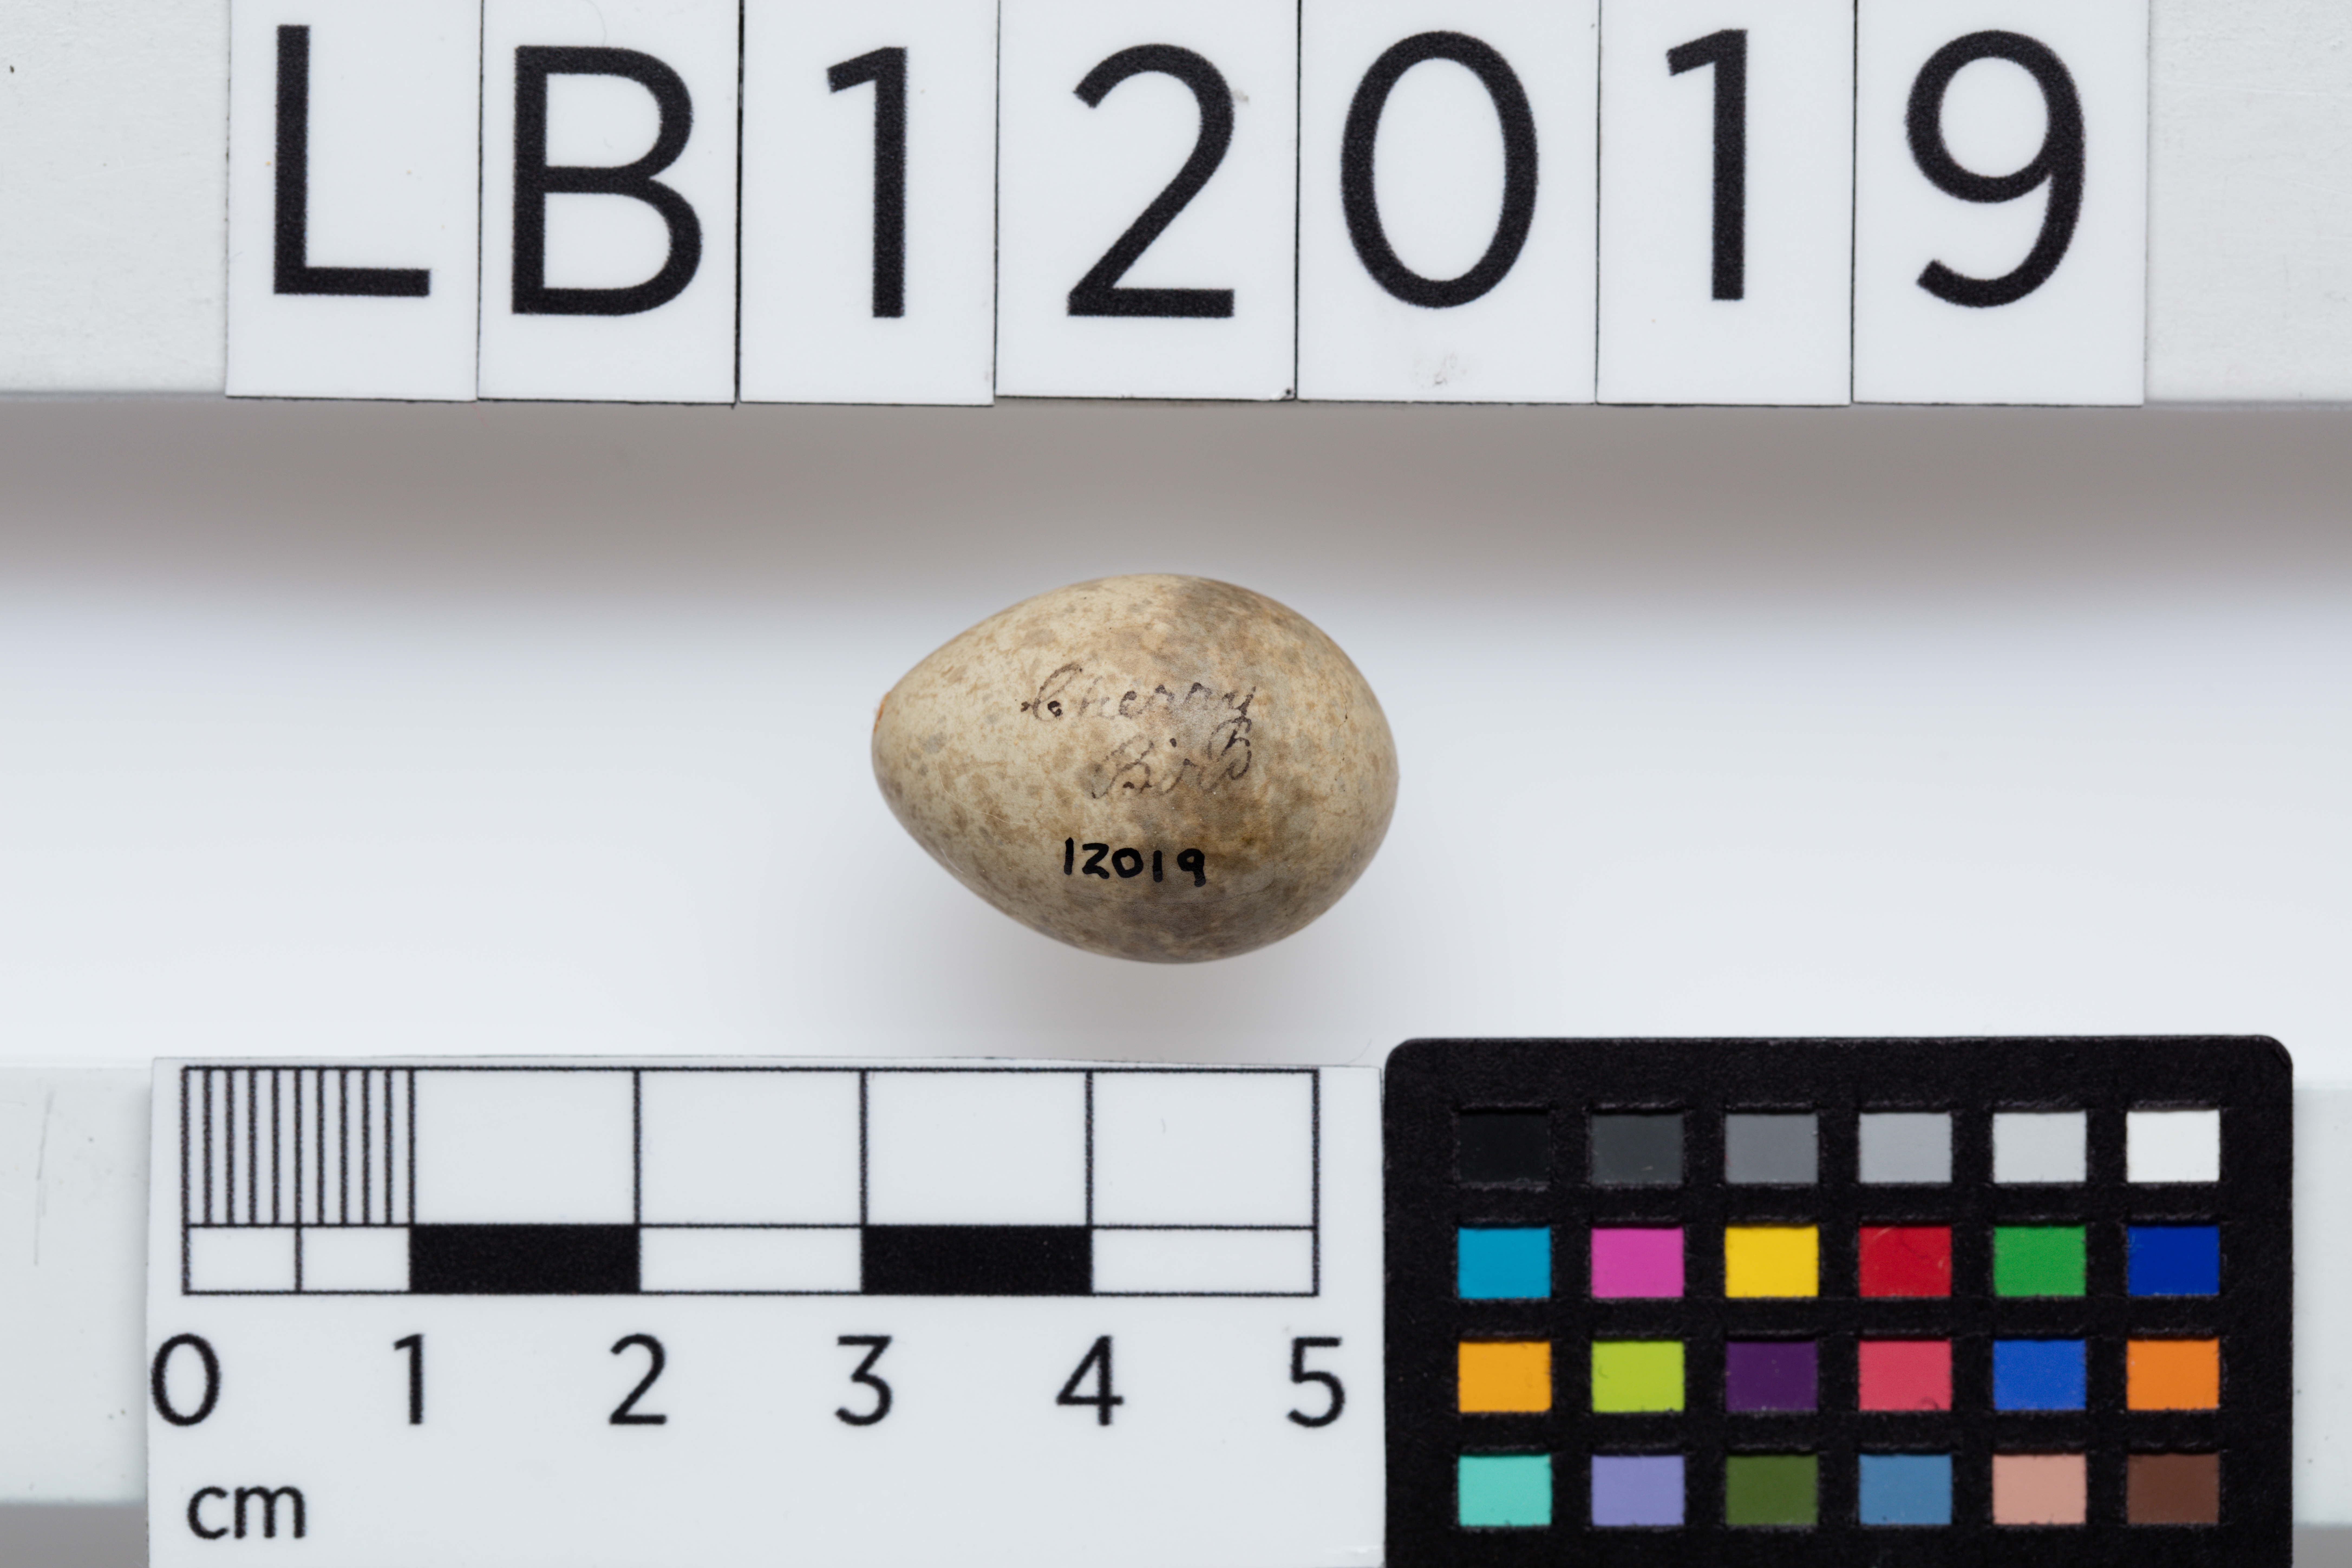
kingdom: Animalia
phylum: Chordata
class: Aves
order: Passeriformes
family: Monarchidae
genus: Myiagra
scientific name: Myiagra cyanoleuca
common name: Satin flycatcher
